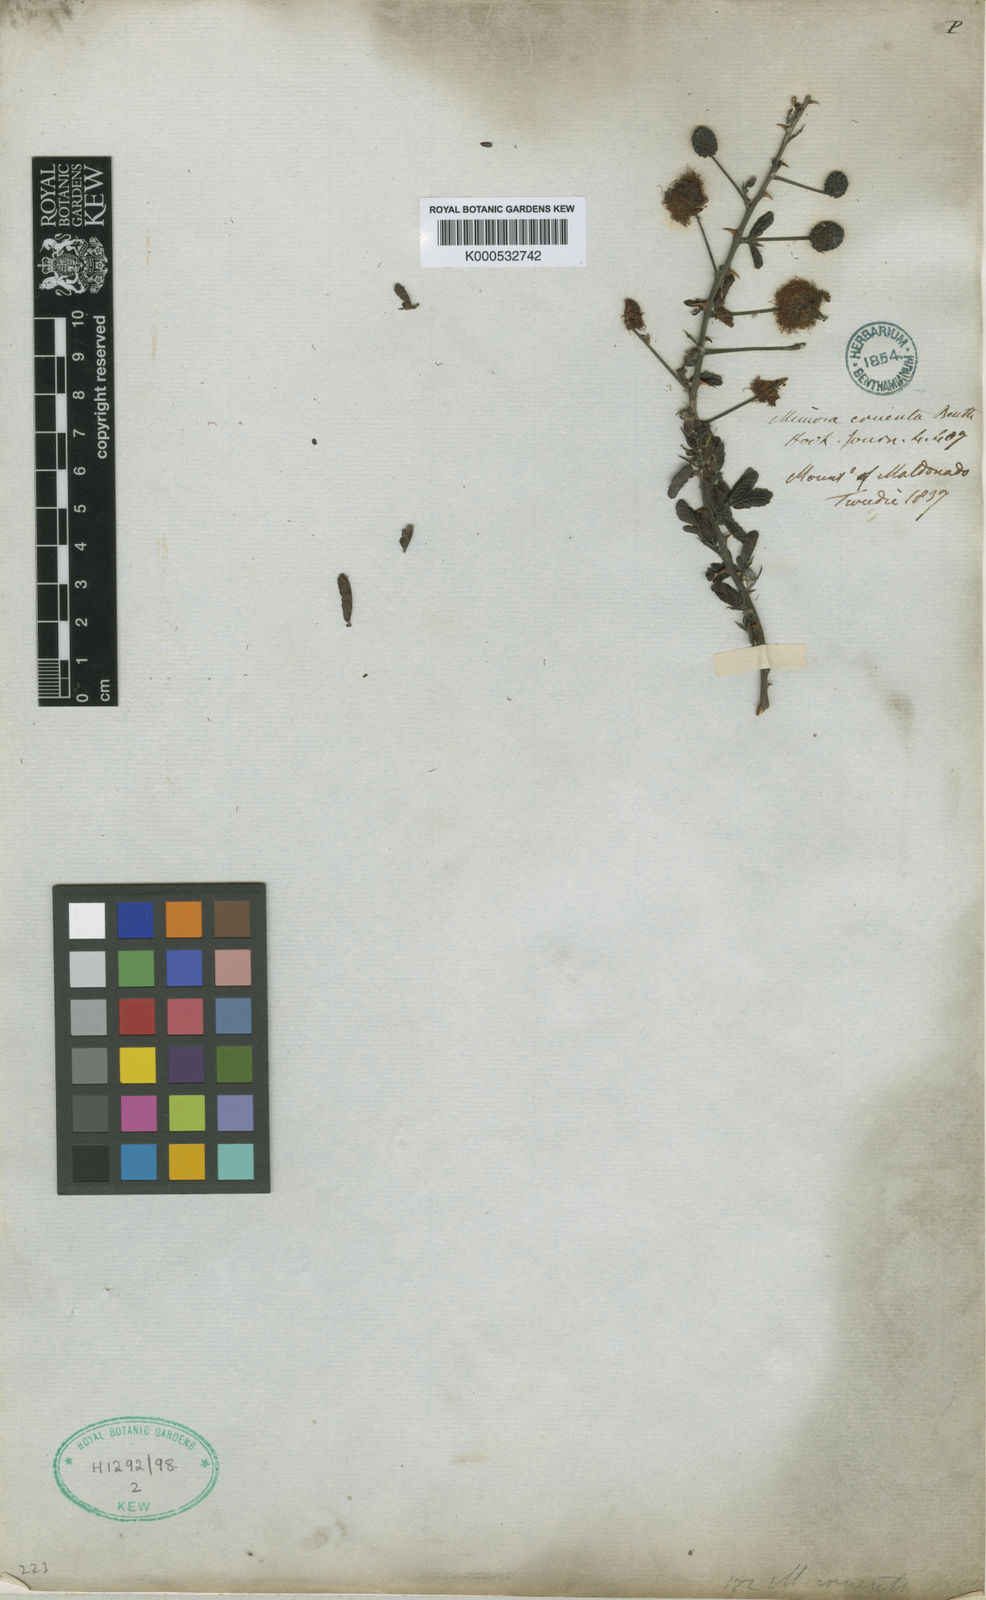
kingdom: Plantae
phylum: Tracheophyta
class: Magnoliopsida
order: Fabales
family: Fabaceae
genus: Mimosa
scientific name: Mimosa cruenta
